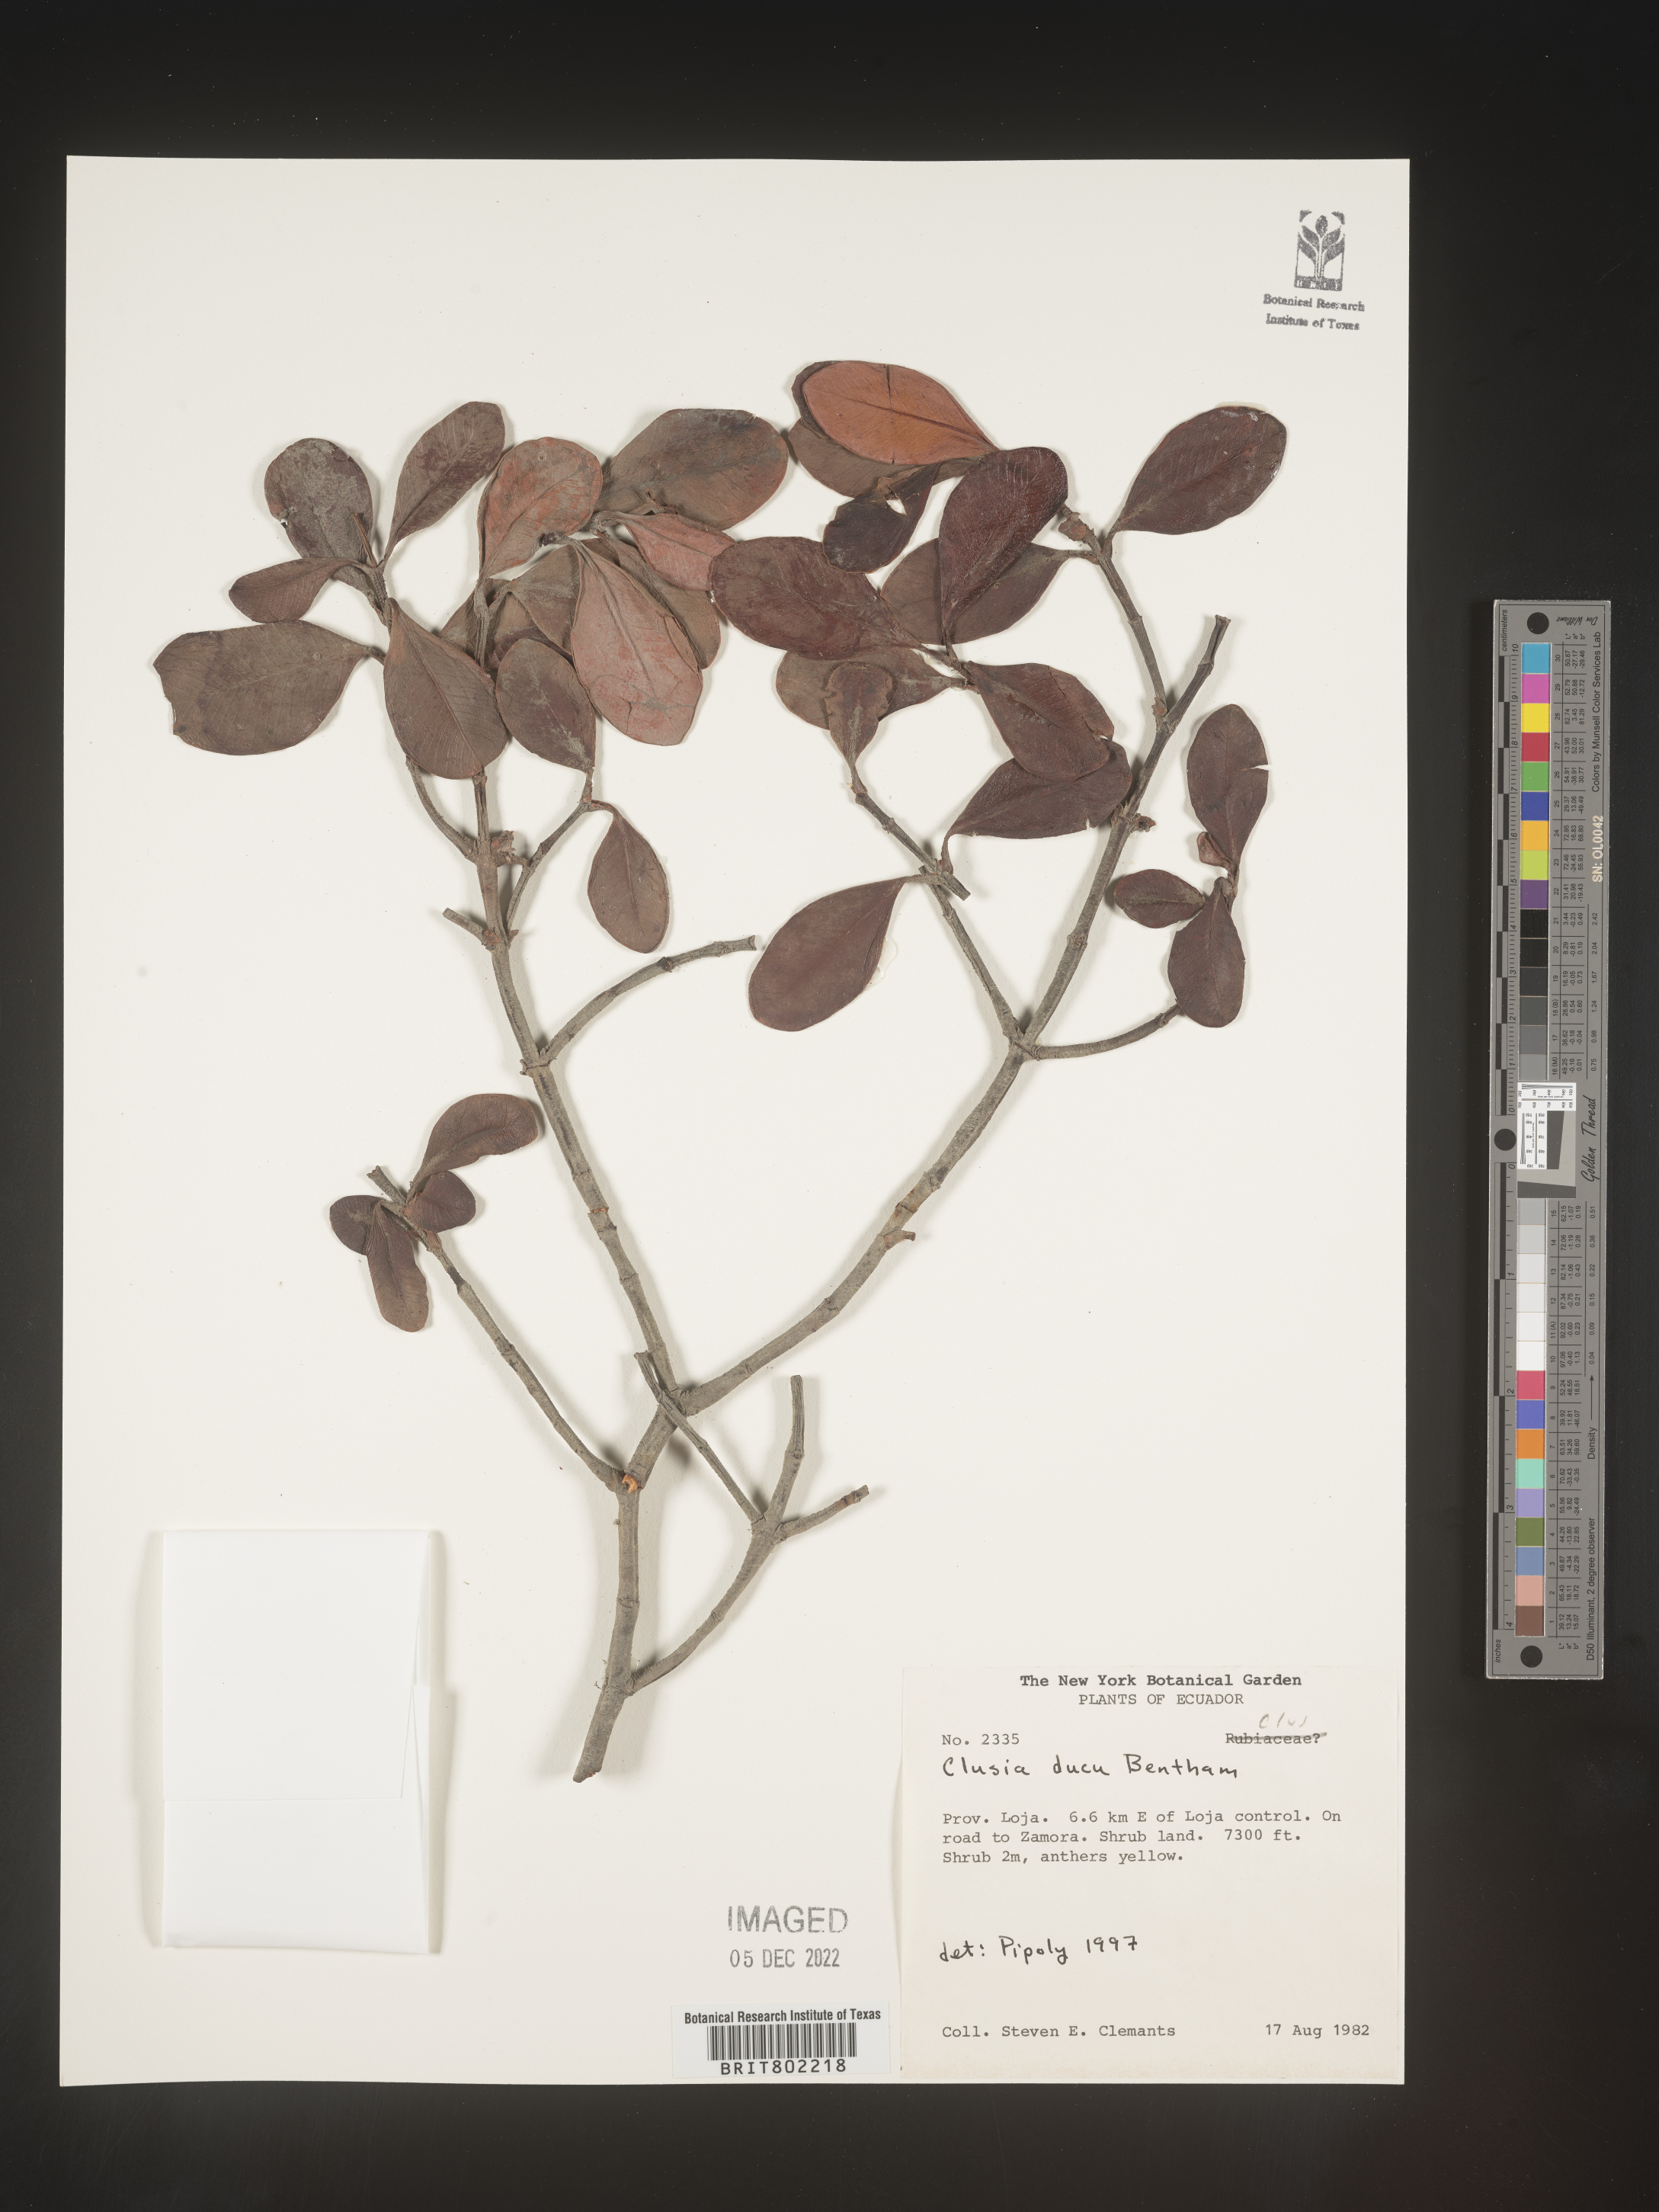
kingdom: Plantae
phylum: Tracheophyta
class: Magnoliopsida
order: Malpighiales
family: Clusiaceae
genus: Clusia
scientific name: Clusia ducu
